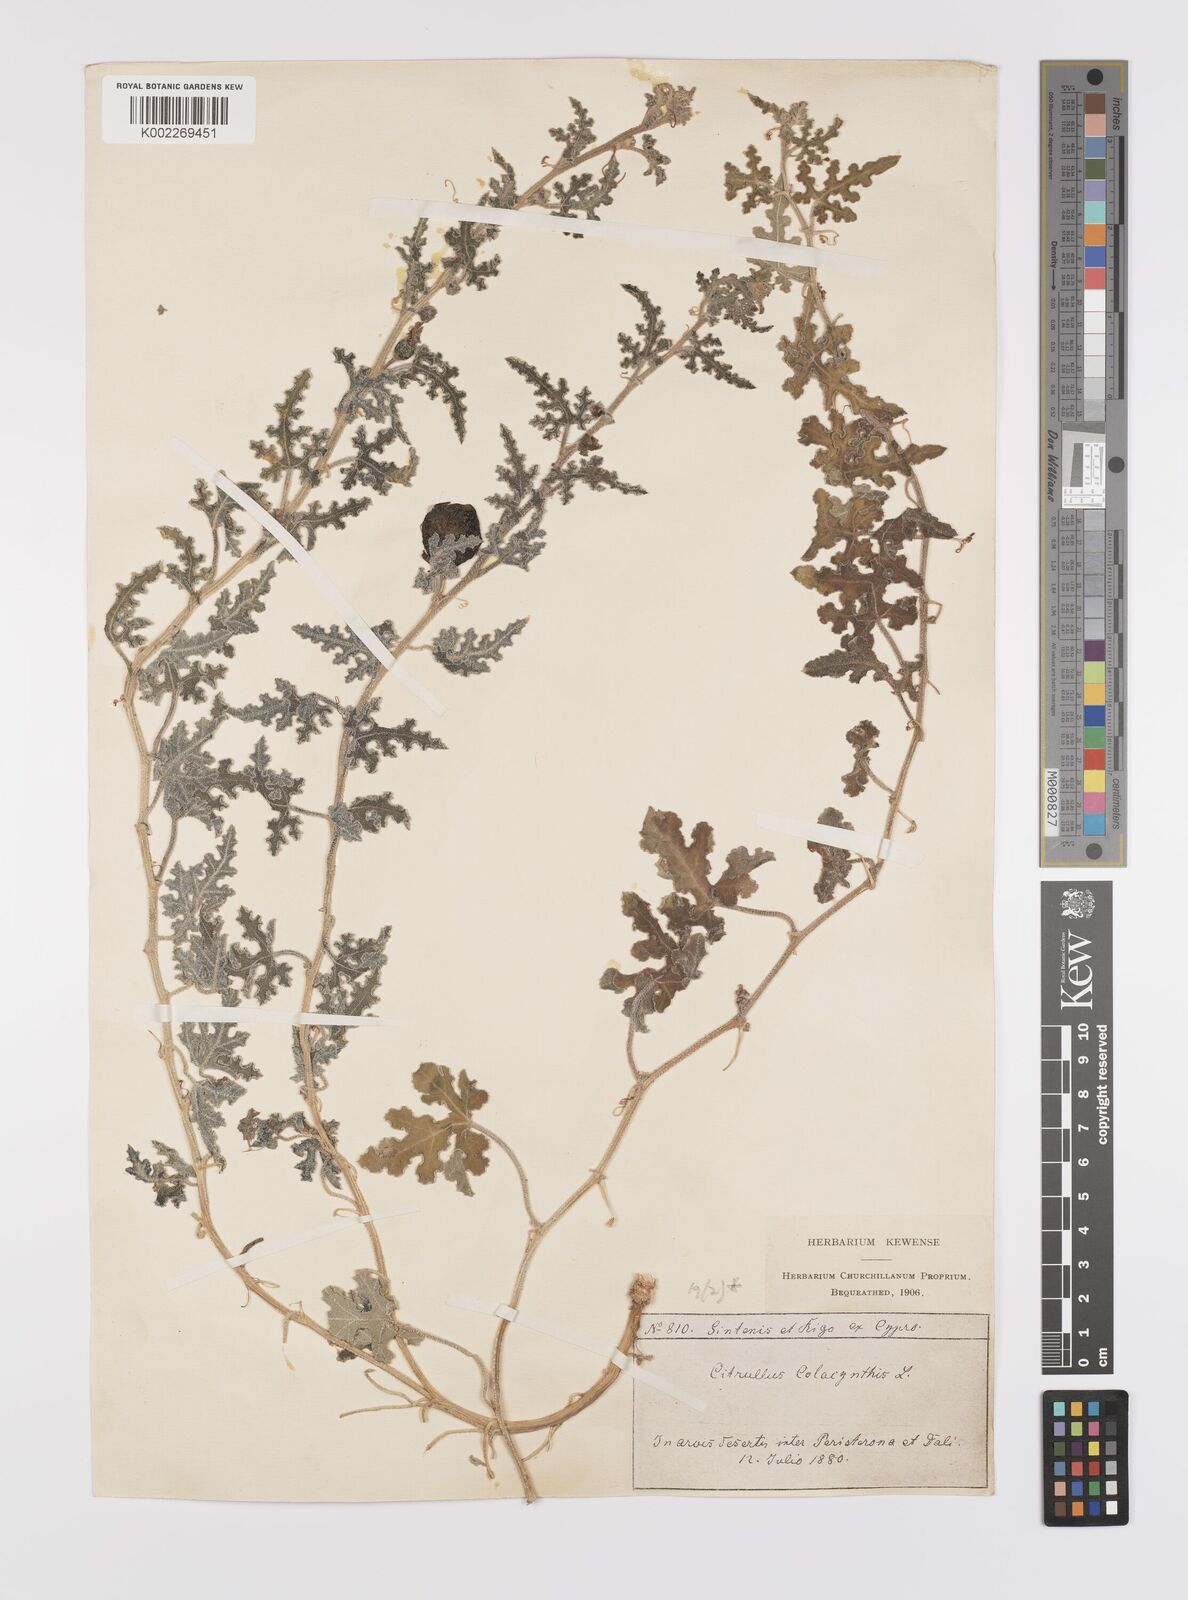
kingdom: Plantae
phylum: Tracheophyta
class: Magnoliopsida
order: Cucurbitales
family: Cucurbitaceae
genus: Citrullus
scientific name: Citrullus colocynthis
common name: Colocynth
